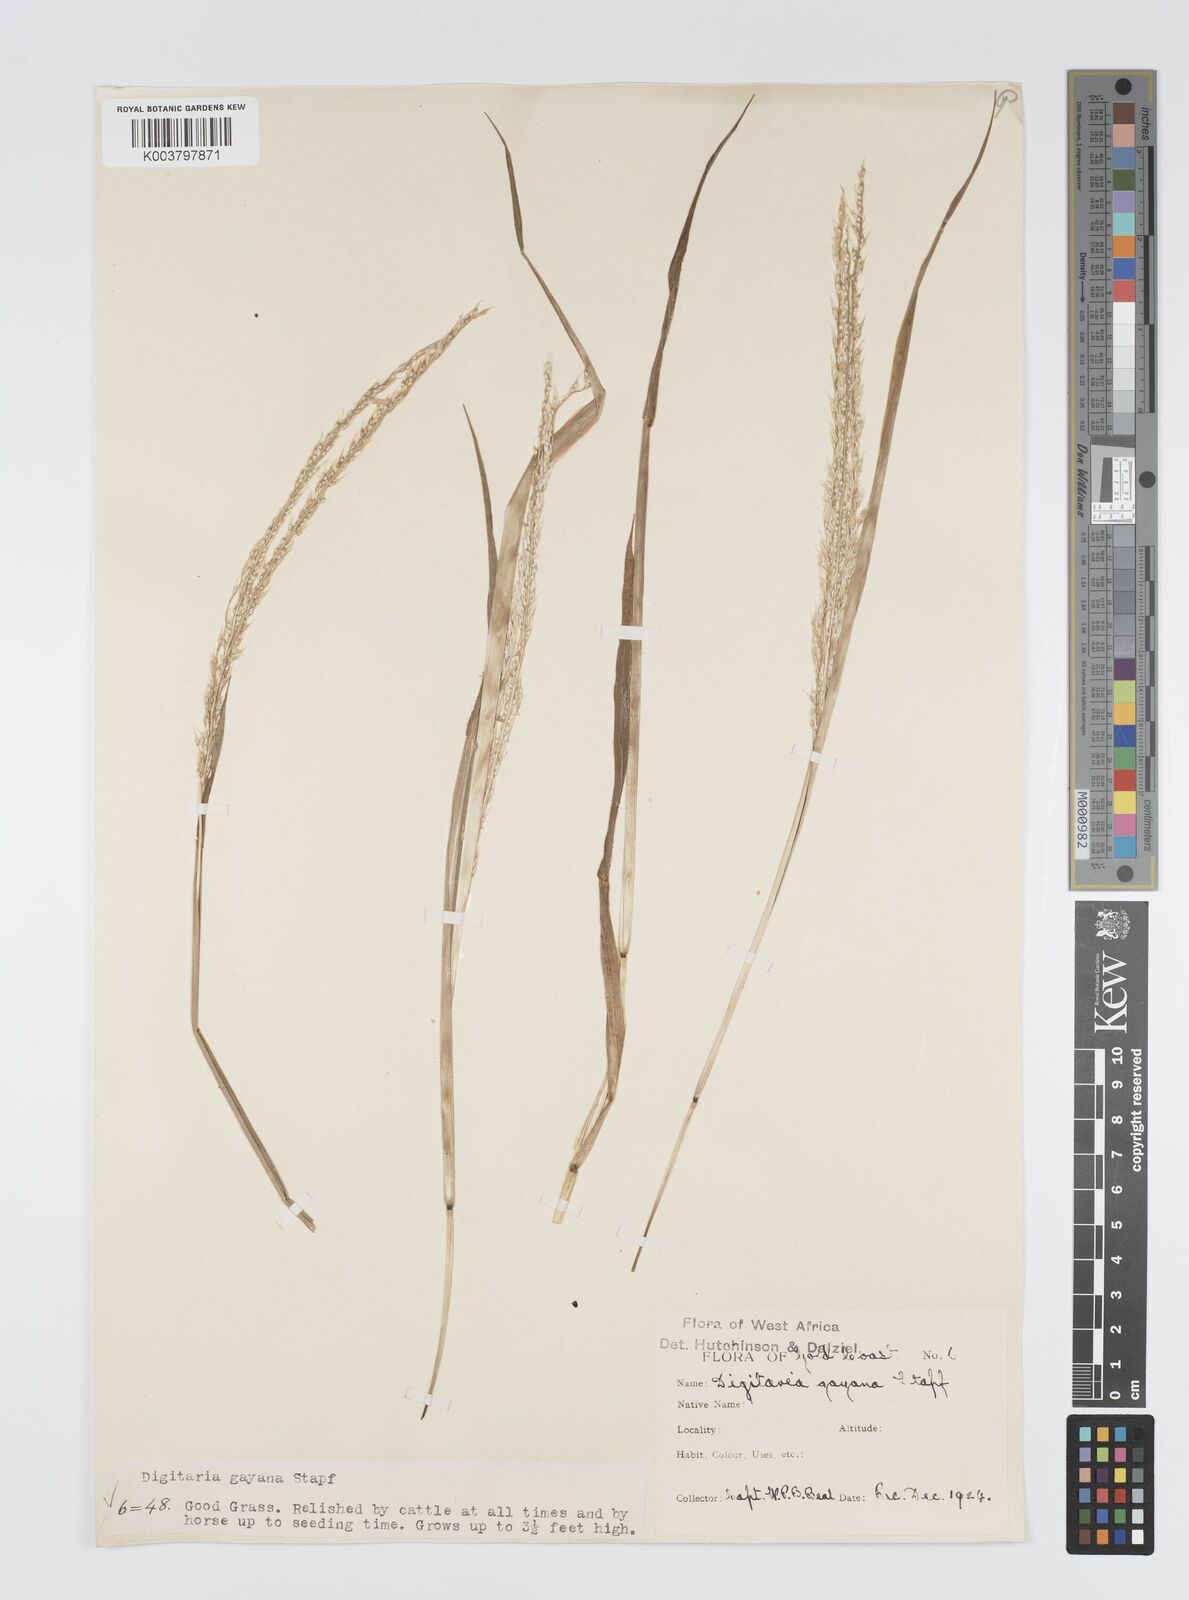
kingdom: Plantae
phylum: Tracheophyta
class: Liliopsida
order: Poales
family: Poaceae
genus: Digitaria
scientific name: Digitaria gayana
